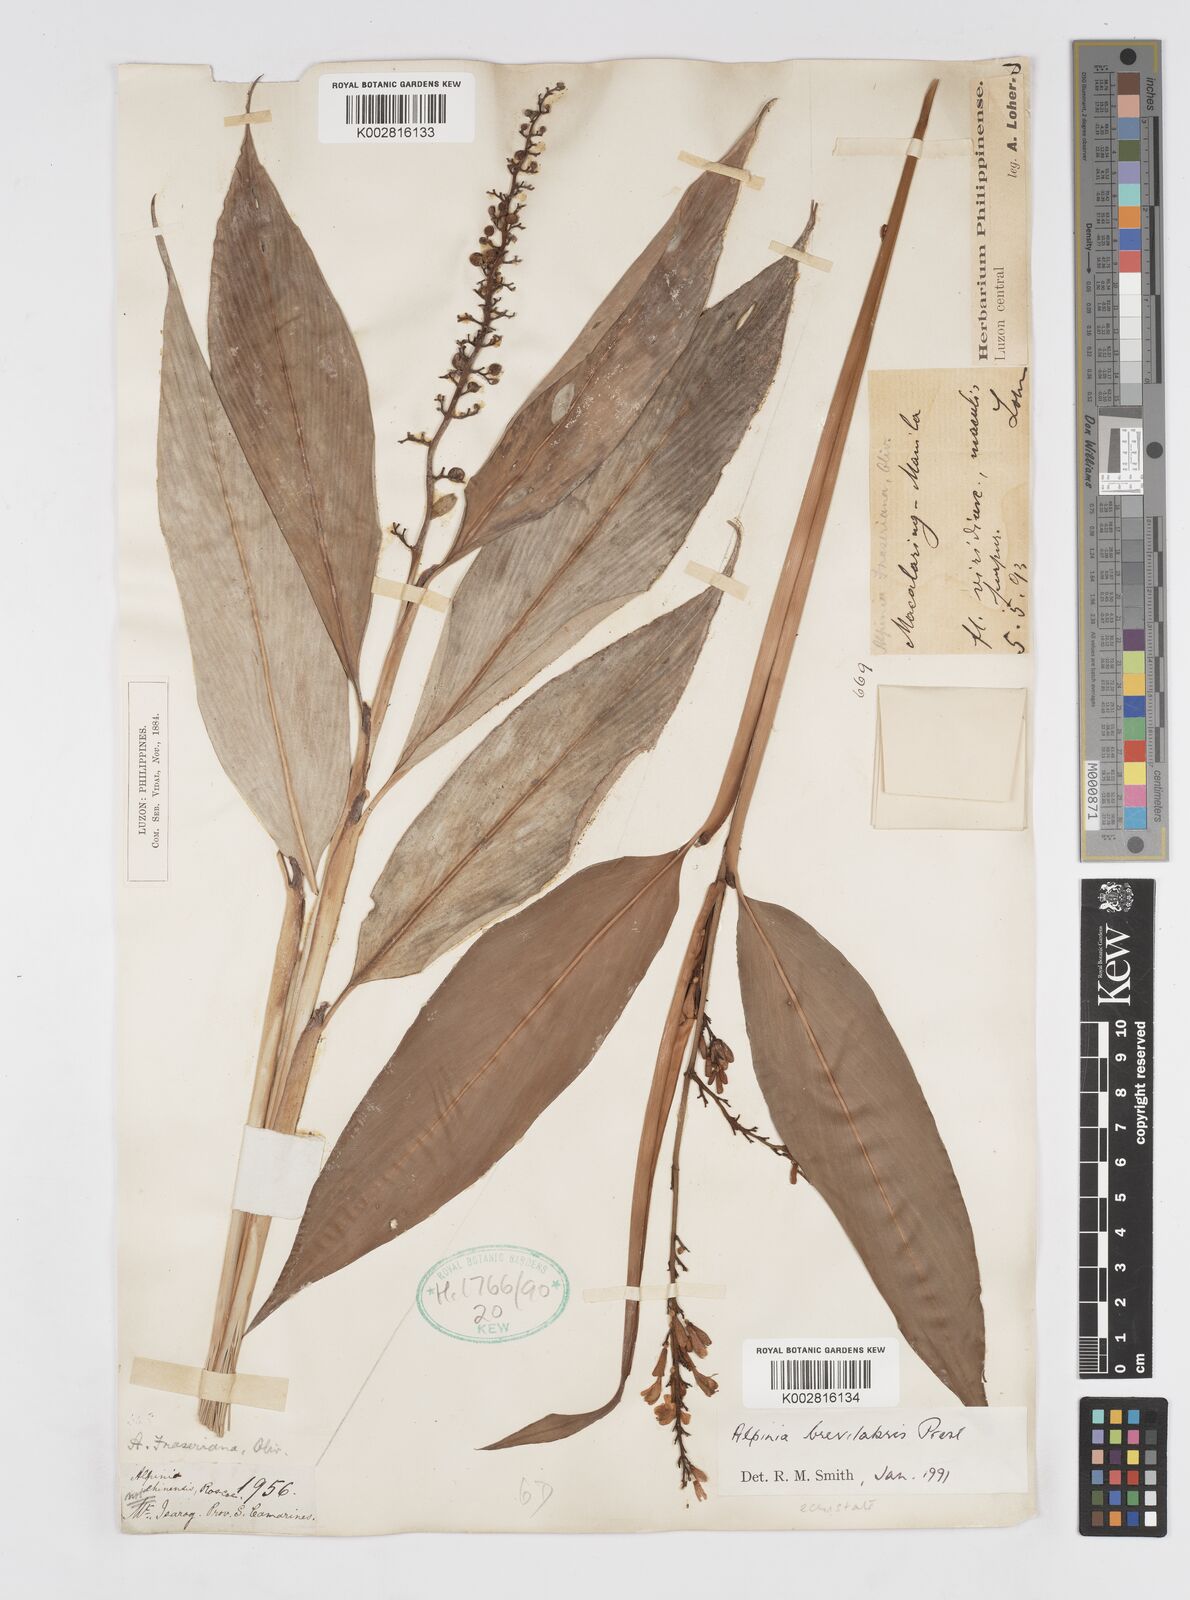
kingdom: Plantae
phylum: Tracheophyta
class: Liliopsida
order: Zingiberales
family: Zingiberaceae
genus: Alpinia
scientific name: Alpinia brevilabris
